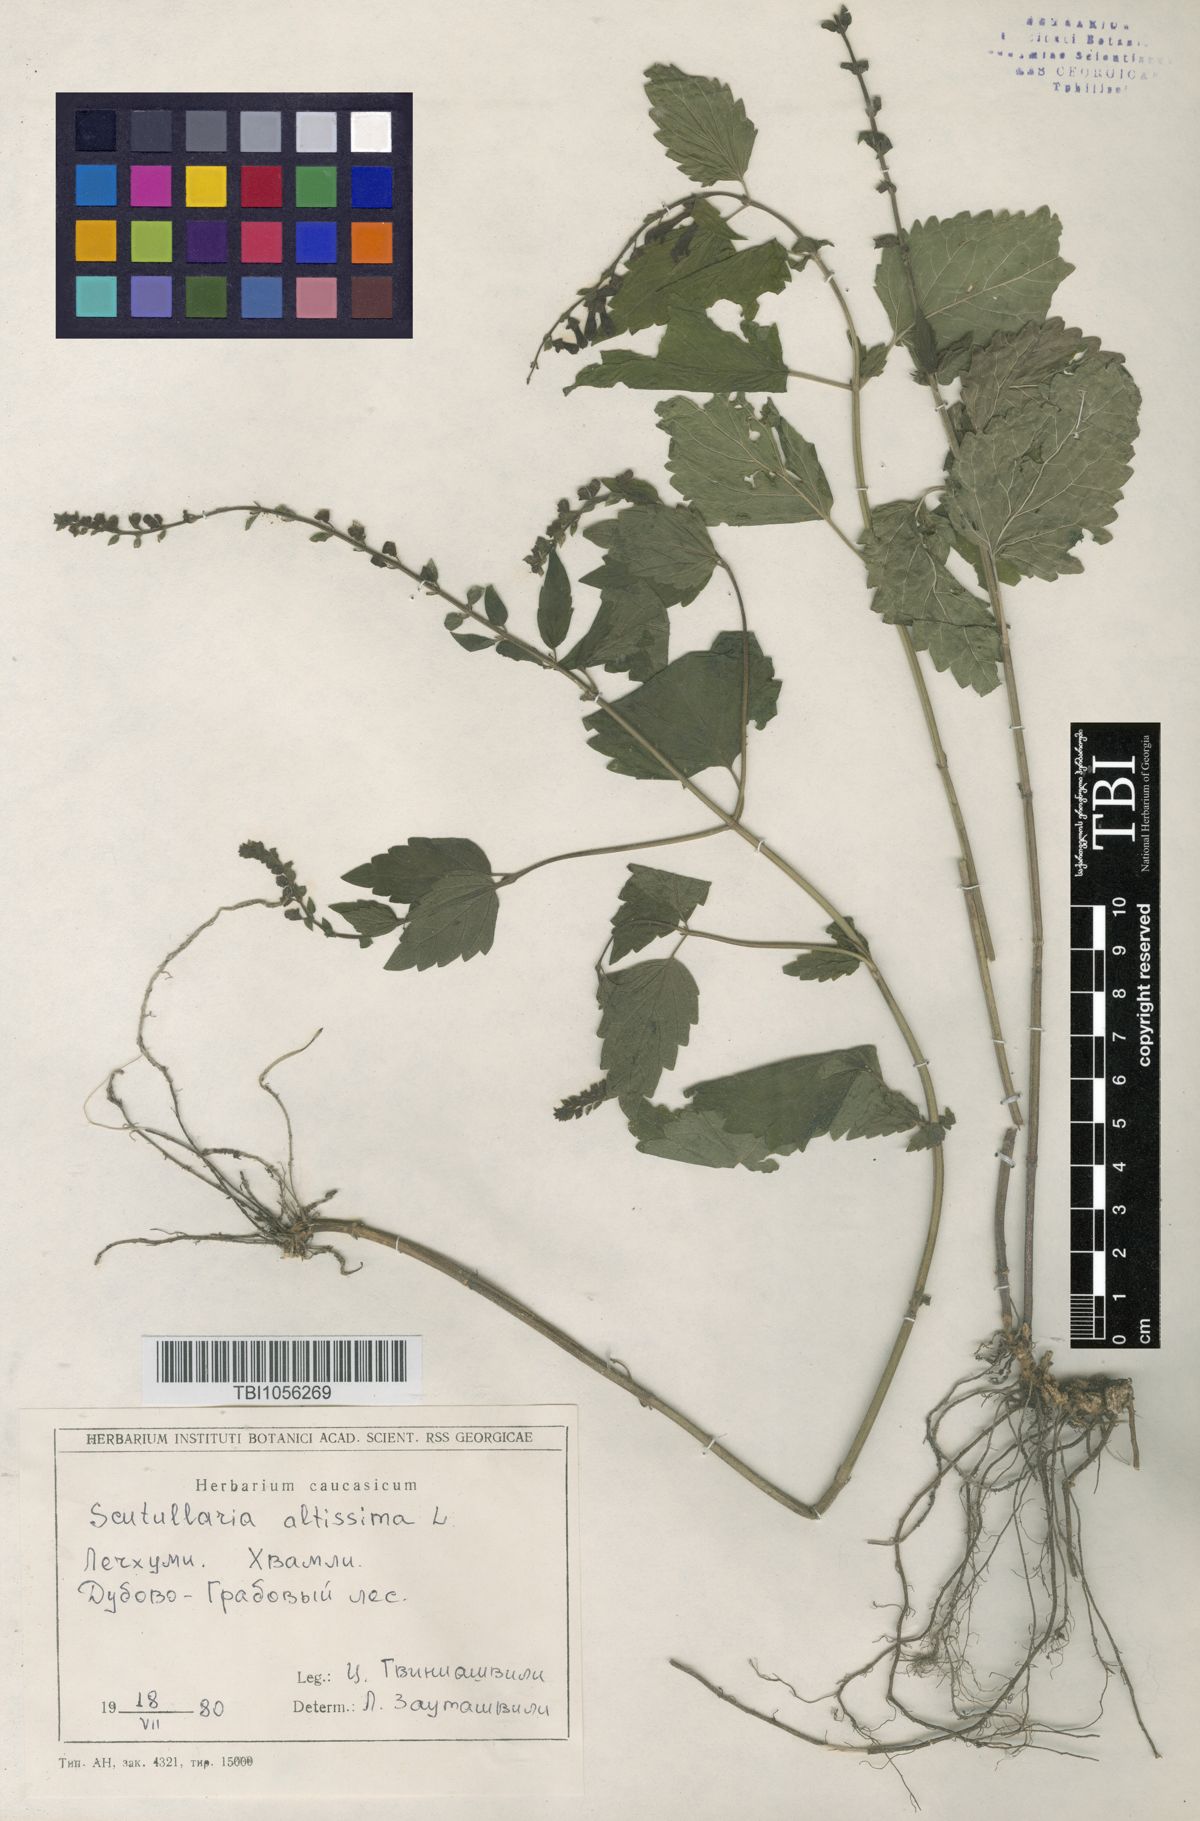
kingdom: Plantae
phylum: Tracheophyta
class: Magnoliopsida
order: Lamiales
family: Lamiaceae
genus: Scutellaria
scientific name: Scutellaria altissima
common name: Somerset skullcap
